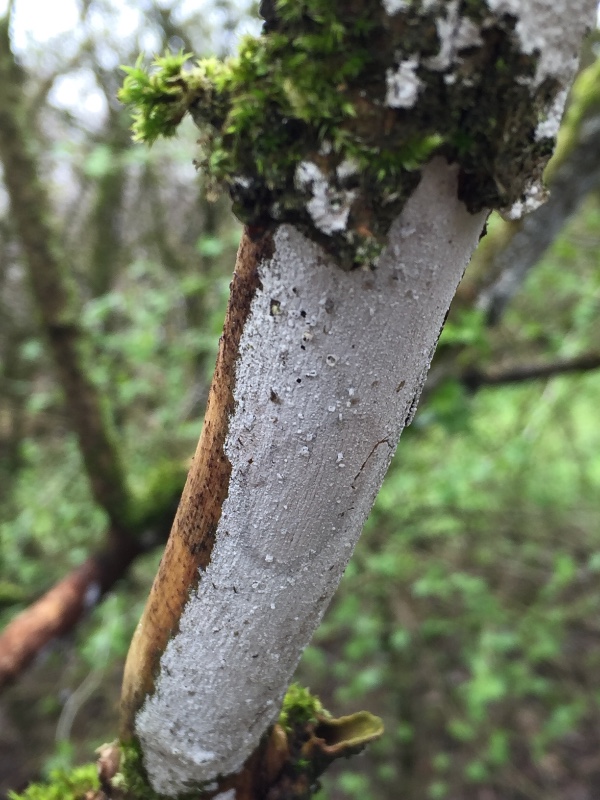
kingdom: Fungi
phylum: Basidiomycota
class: Agaricomycetes
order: Corticiales
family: Corticiaceae
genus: Lyomyces
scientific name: Lyomyces sambuci
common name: almindelig hyldehinde
